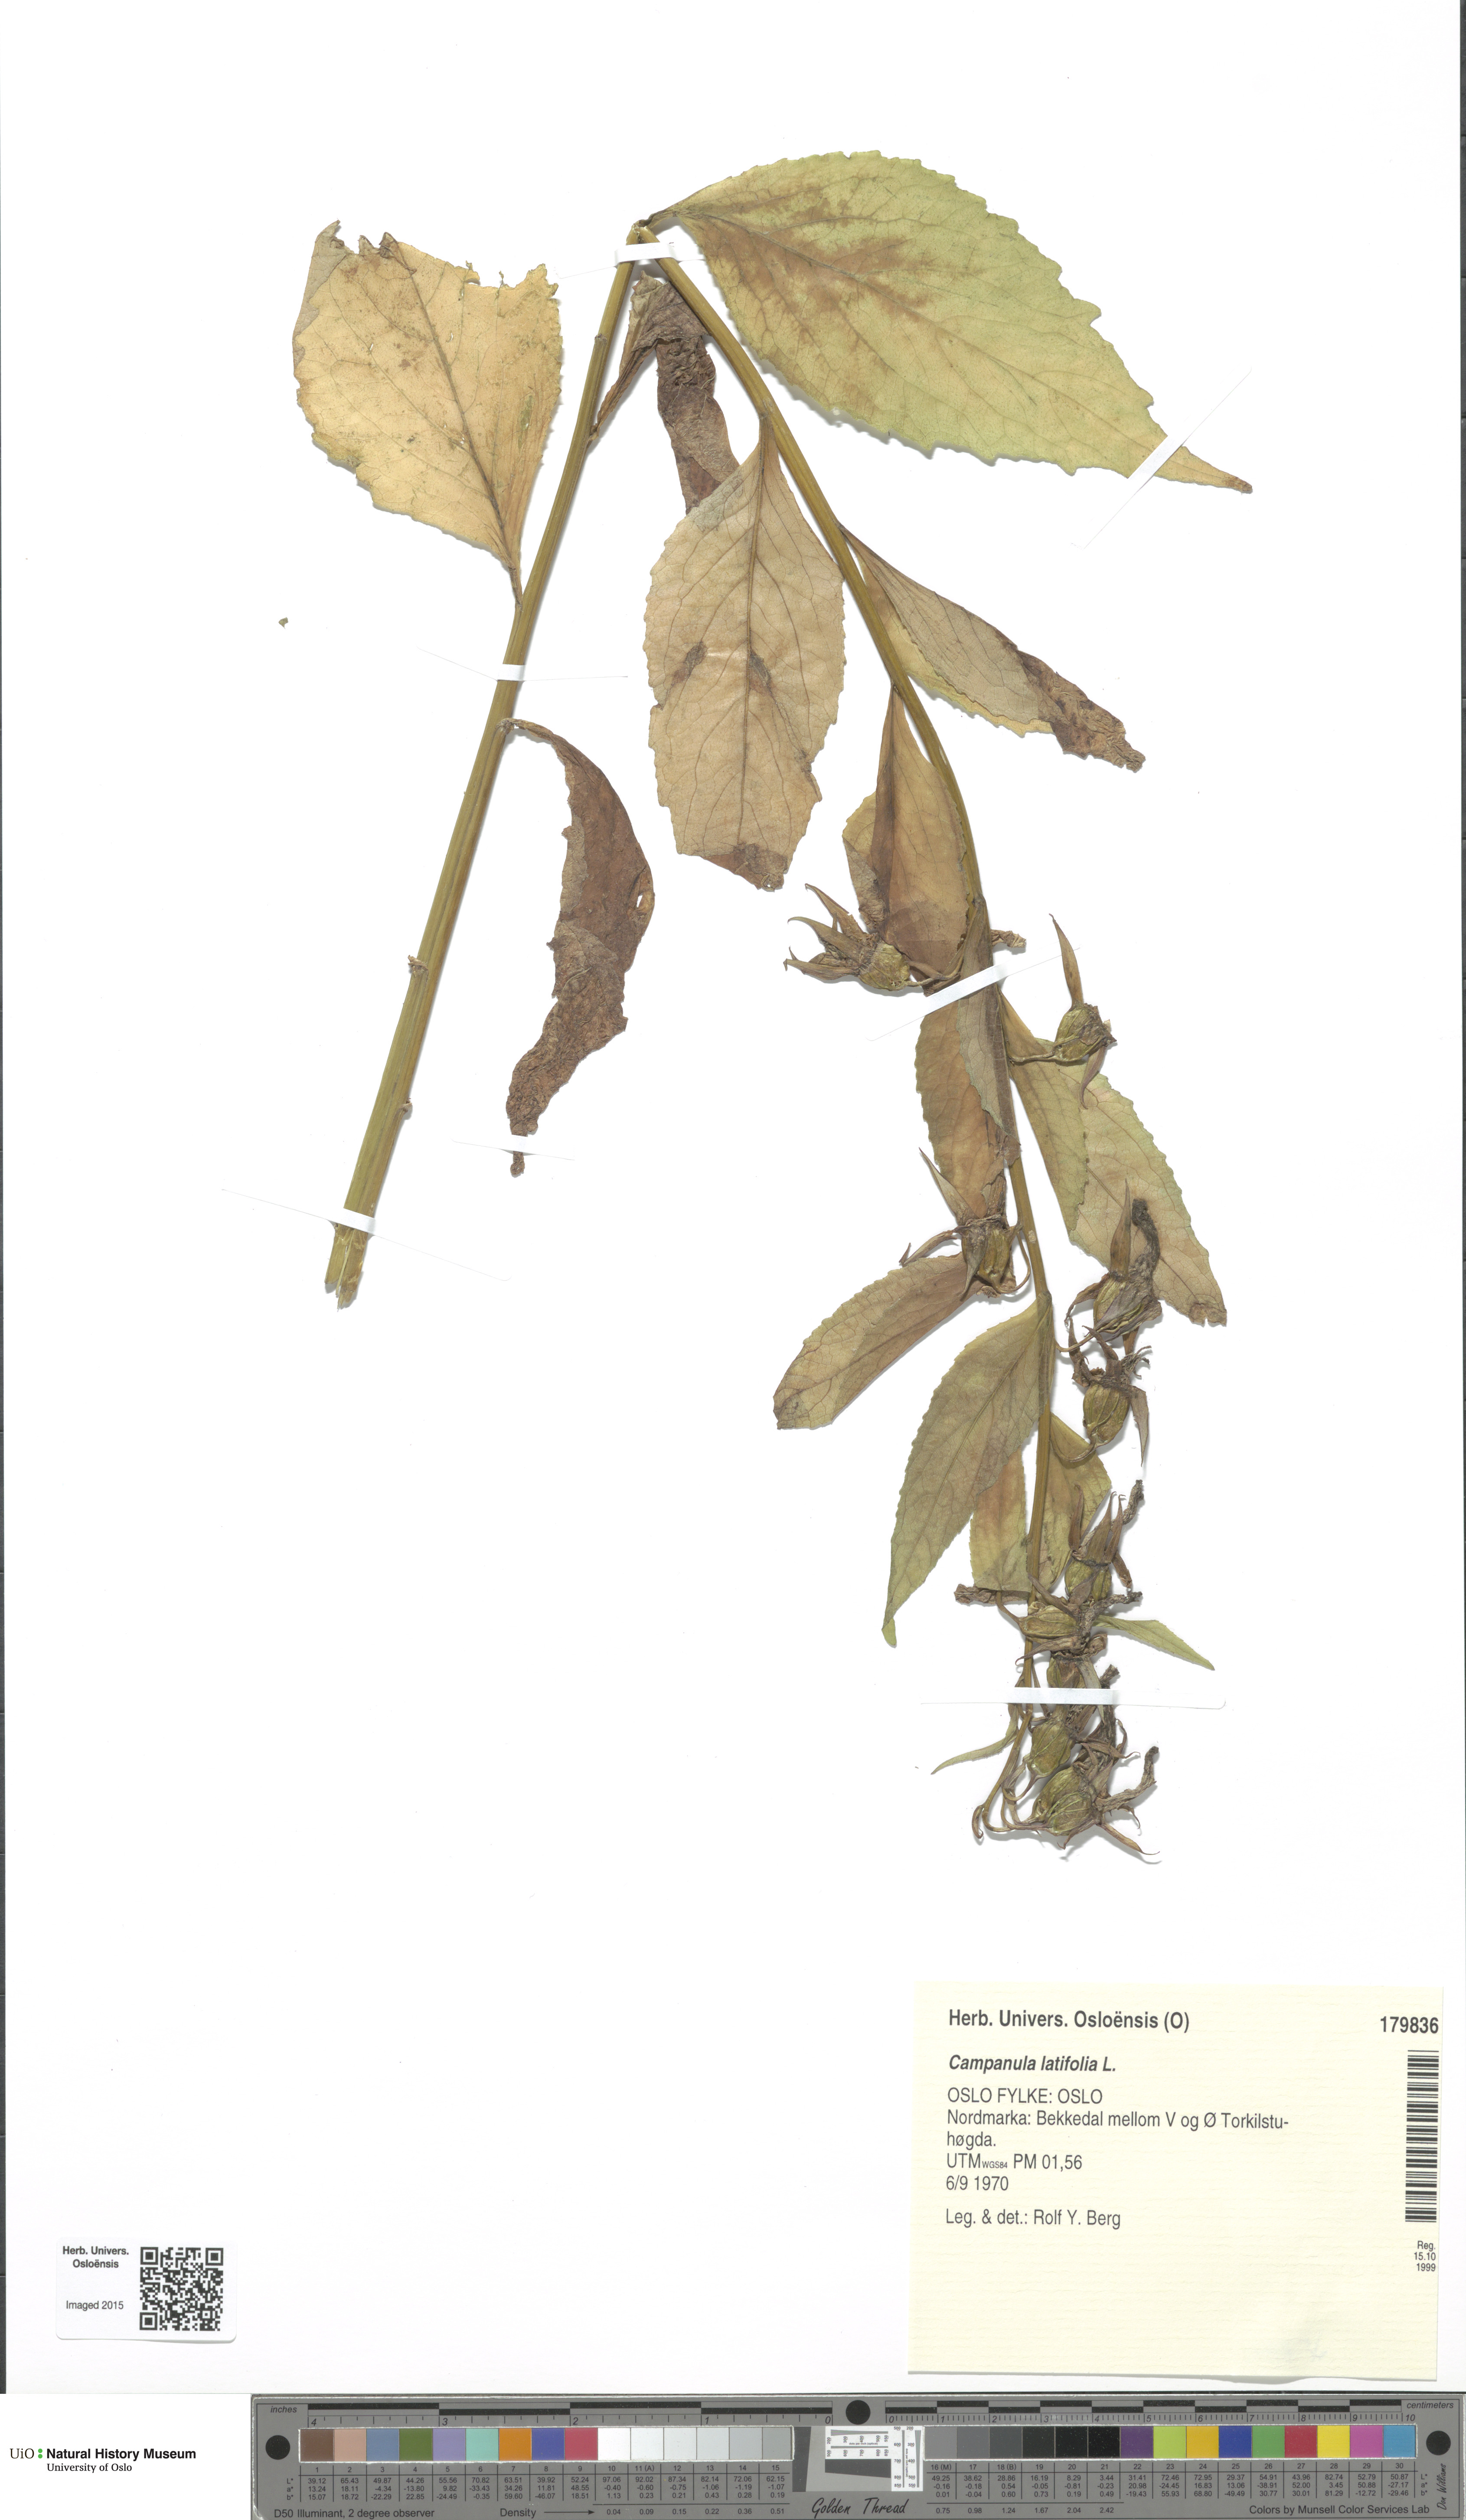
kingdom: Plantae
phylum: Tracheophyta
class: Magnoliopsida
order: Asterales
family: Campanulaceae
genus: Campanula
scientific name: Campanula latifolia
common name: Giant bellflower
